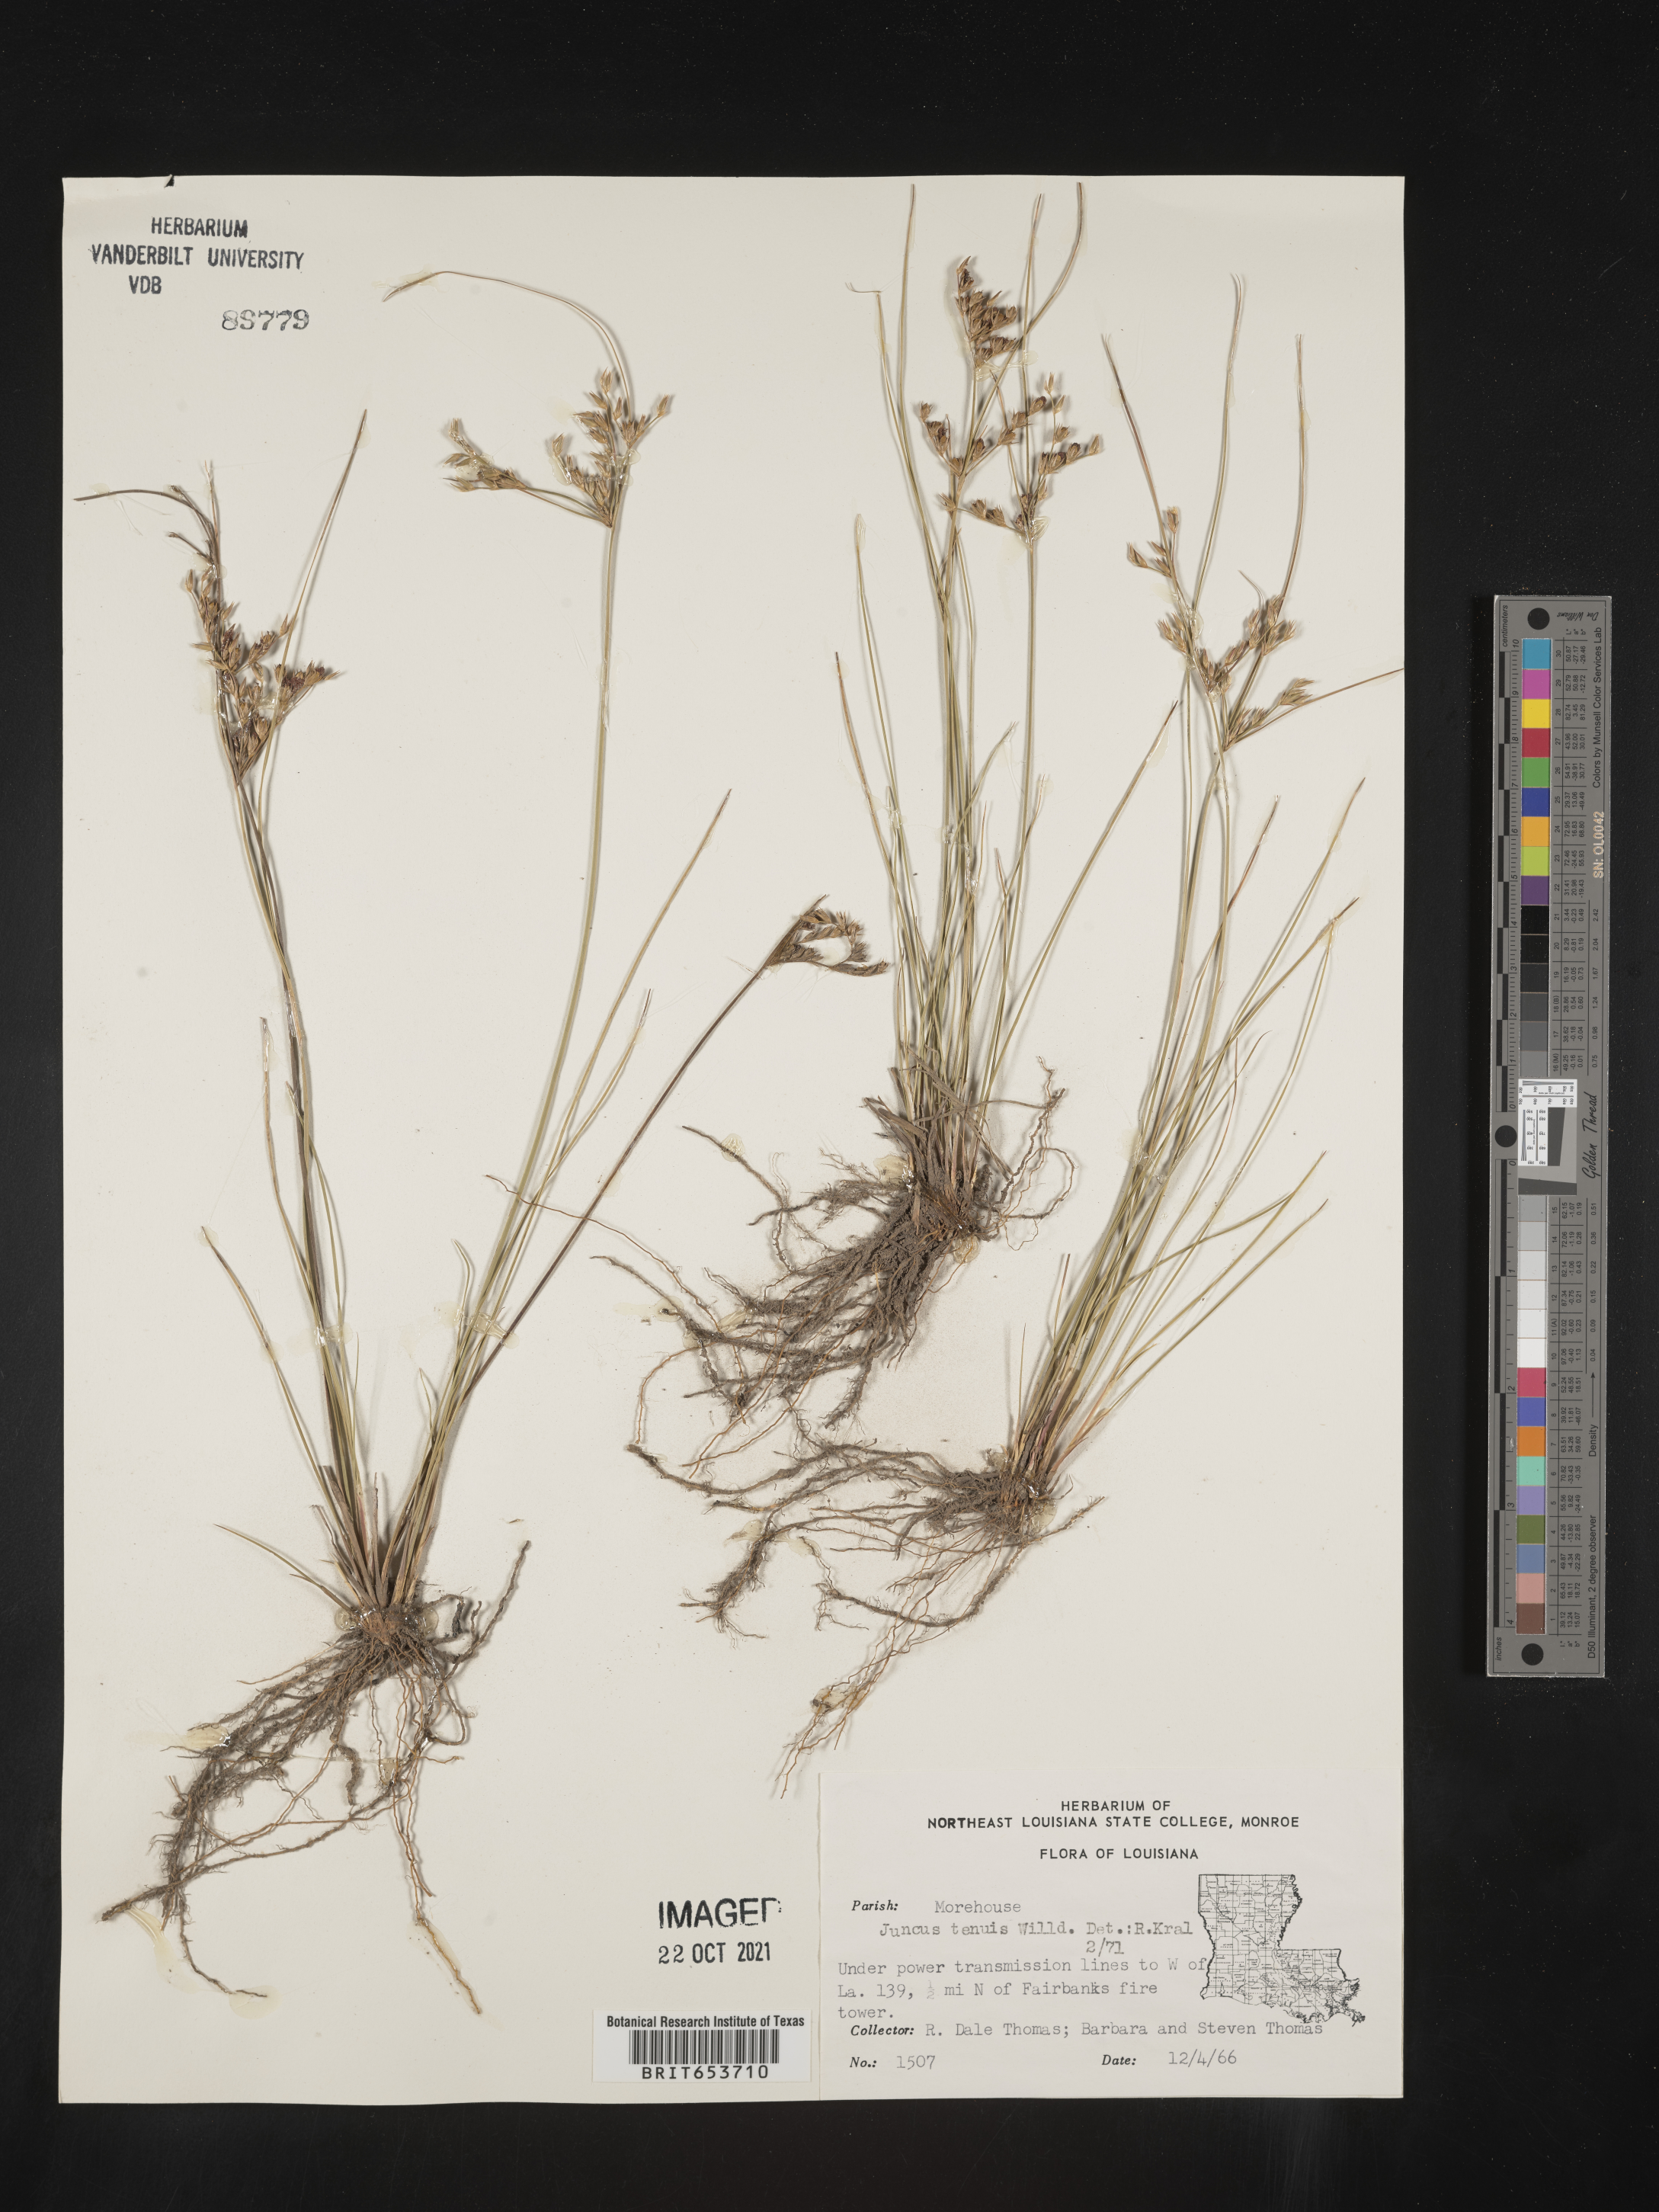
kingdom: Plantae
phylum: Tracheophyta
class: Liliopsida
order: Poales
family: Juncaceae
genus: Juncus
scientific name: Juncus tenuis
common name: Slender rush
